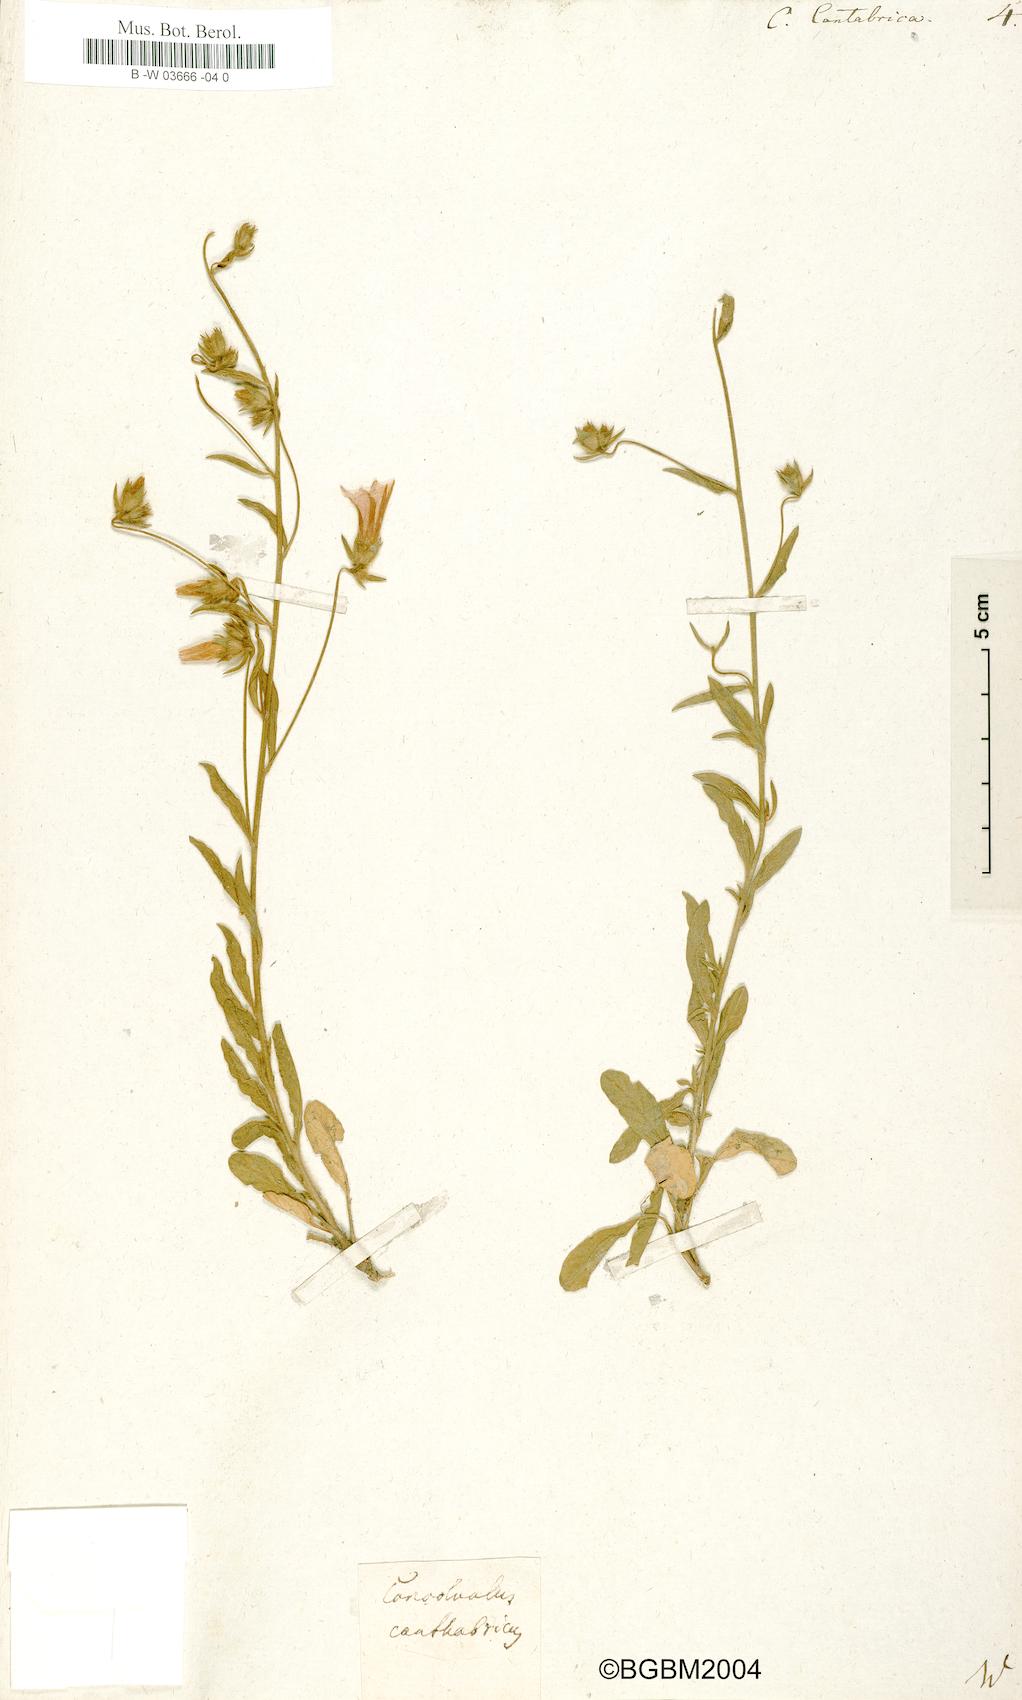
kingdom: Plantae
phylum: Tracheophyta
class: Magnoliopsida
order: Solanales
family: Convolvulaceae
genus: Convolvulus
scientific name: Convolvulus cantabrica
